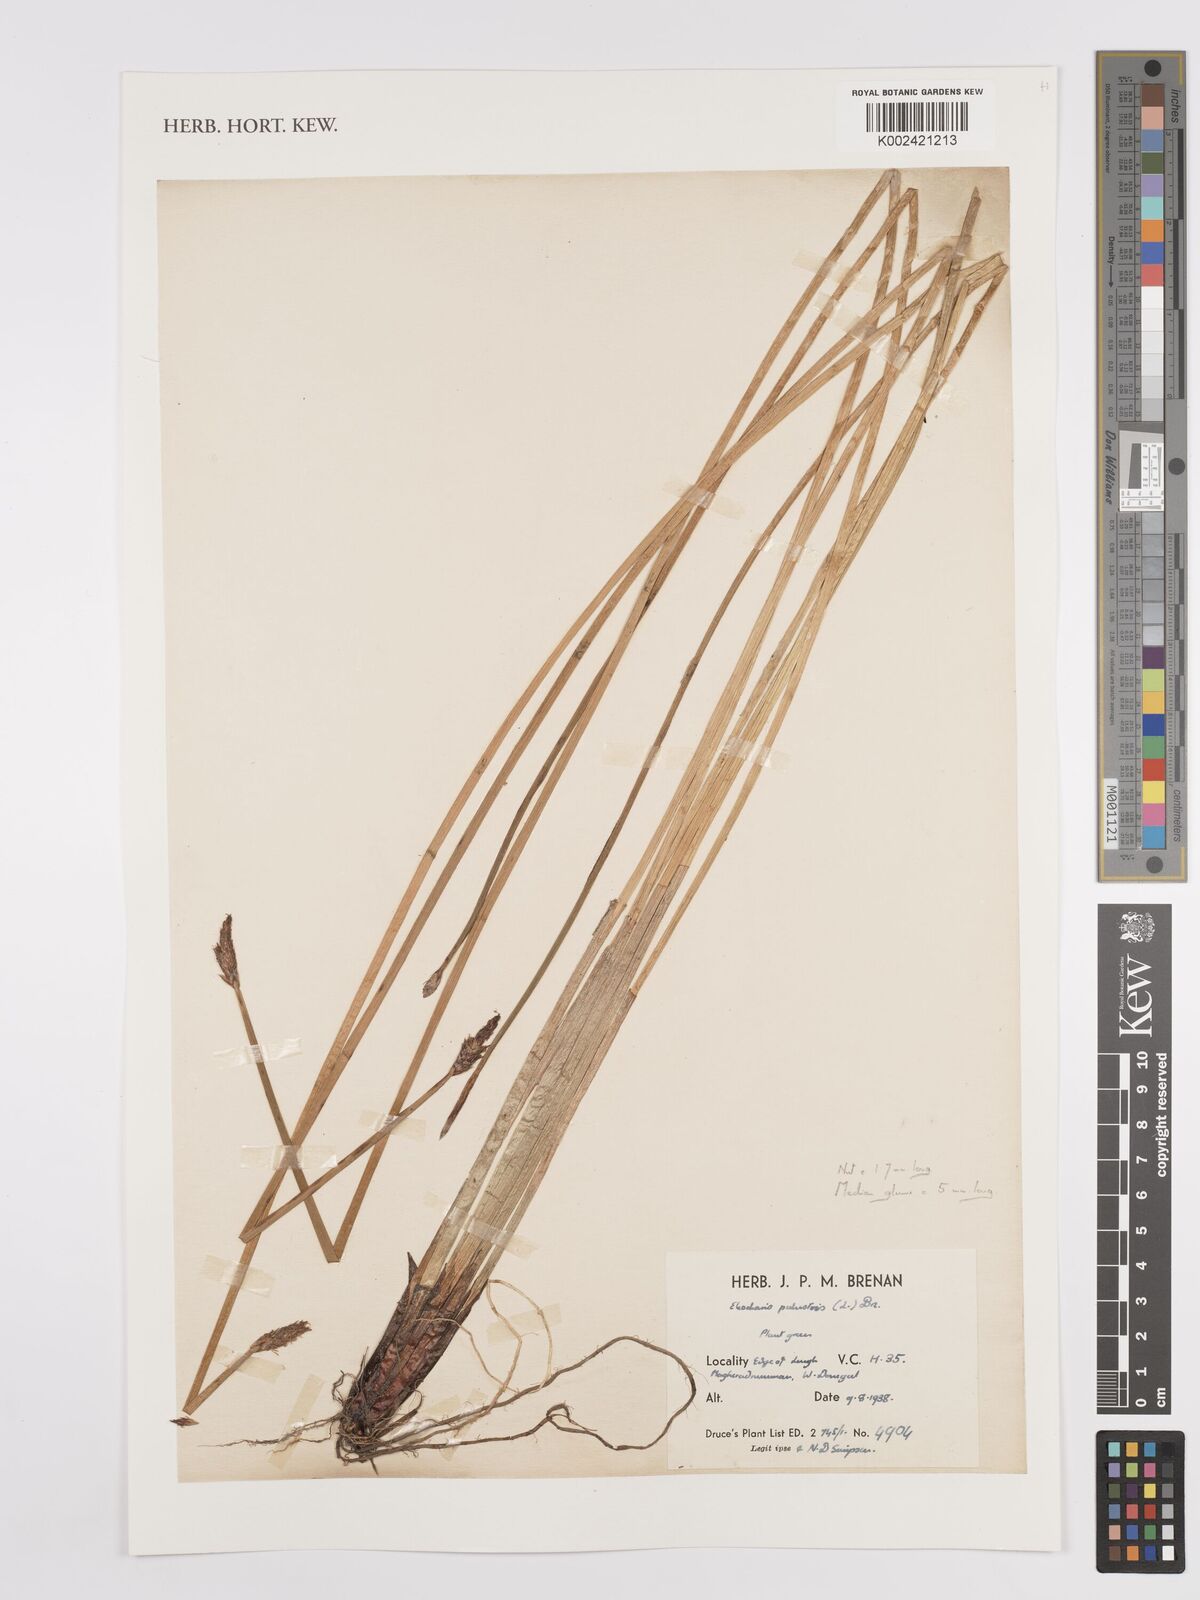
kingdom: Plantae
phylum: Tracheophyta
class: Liliopsida
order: Poales
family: Cyperaceae
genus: Eleocharis
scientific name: Eleocharis palustris
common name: Common spike-rush
